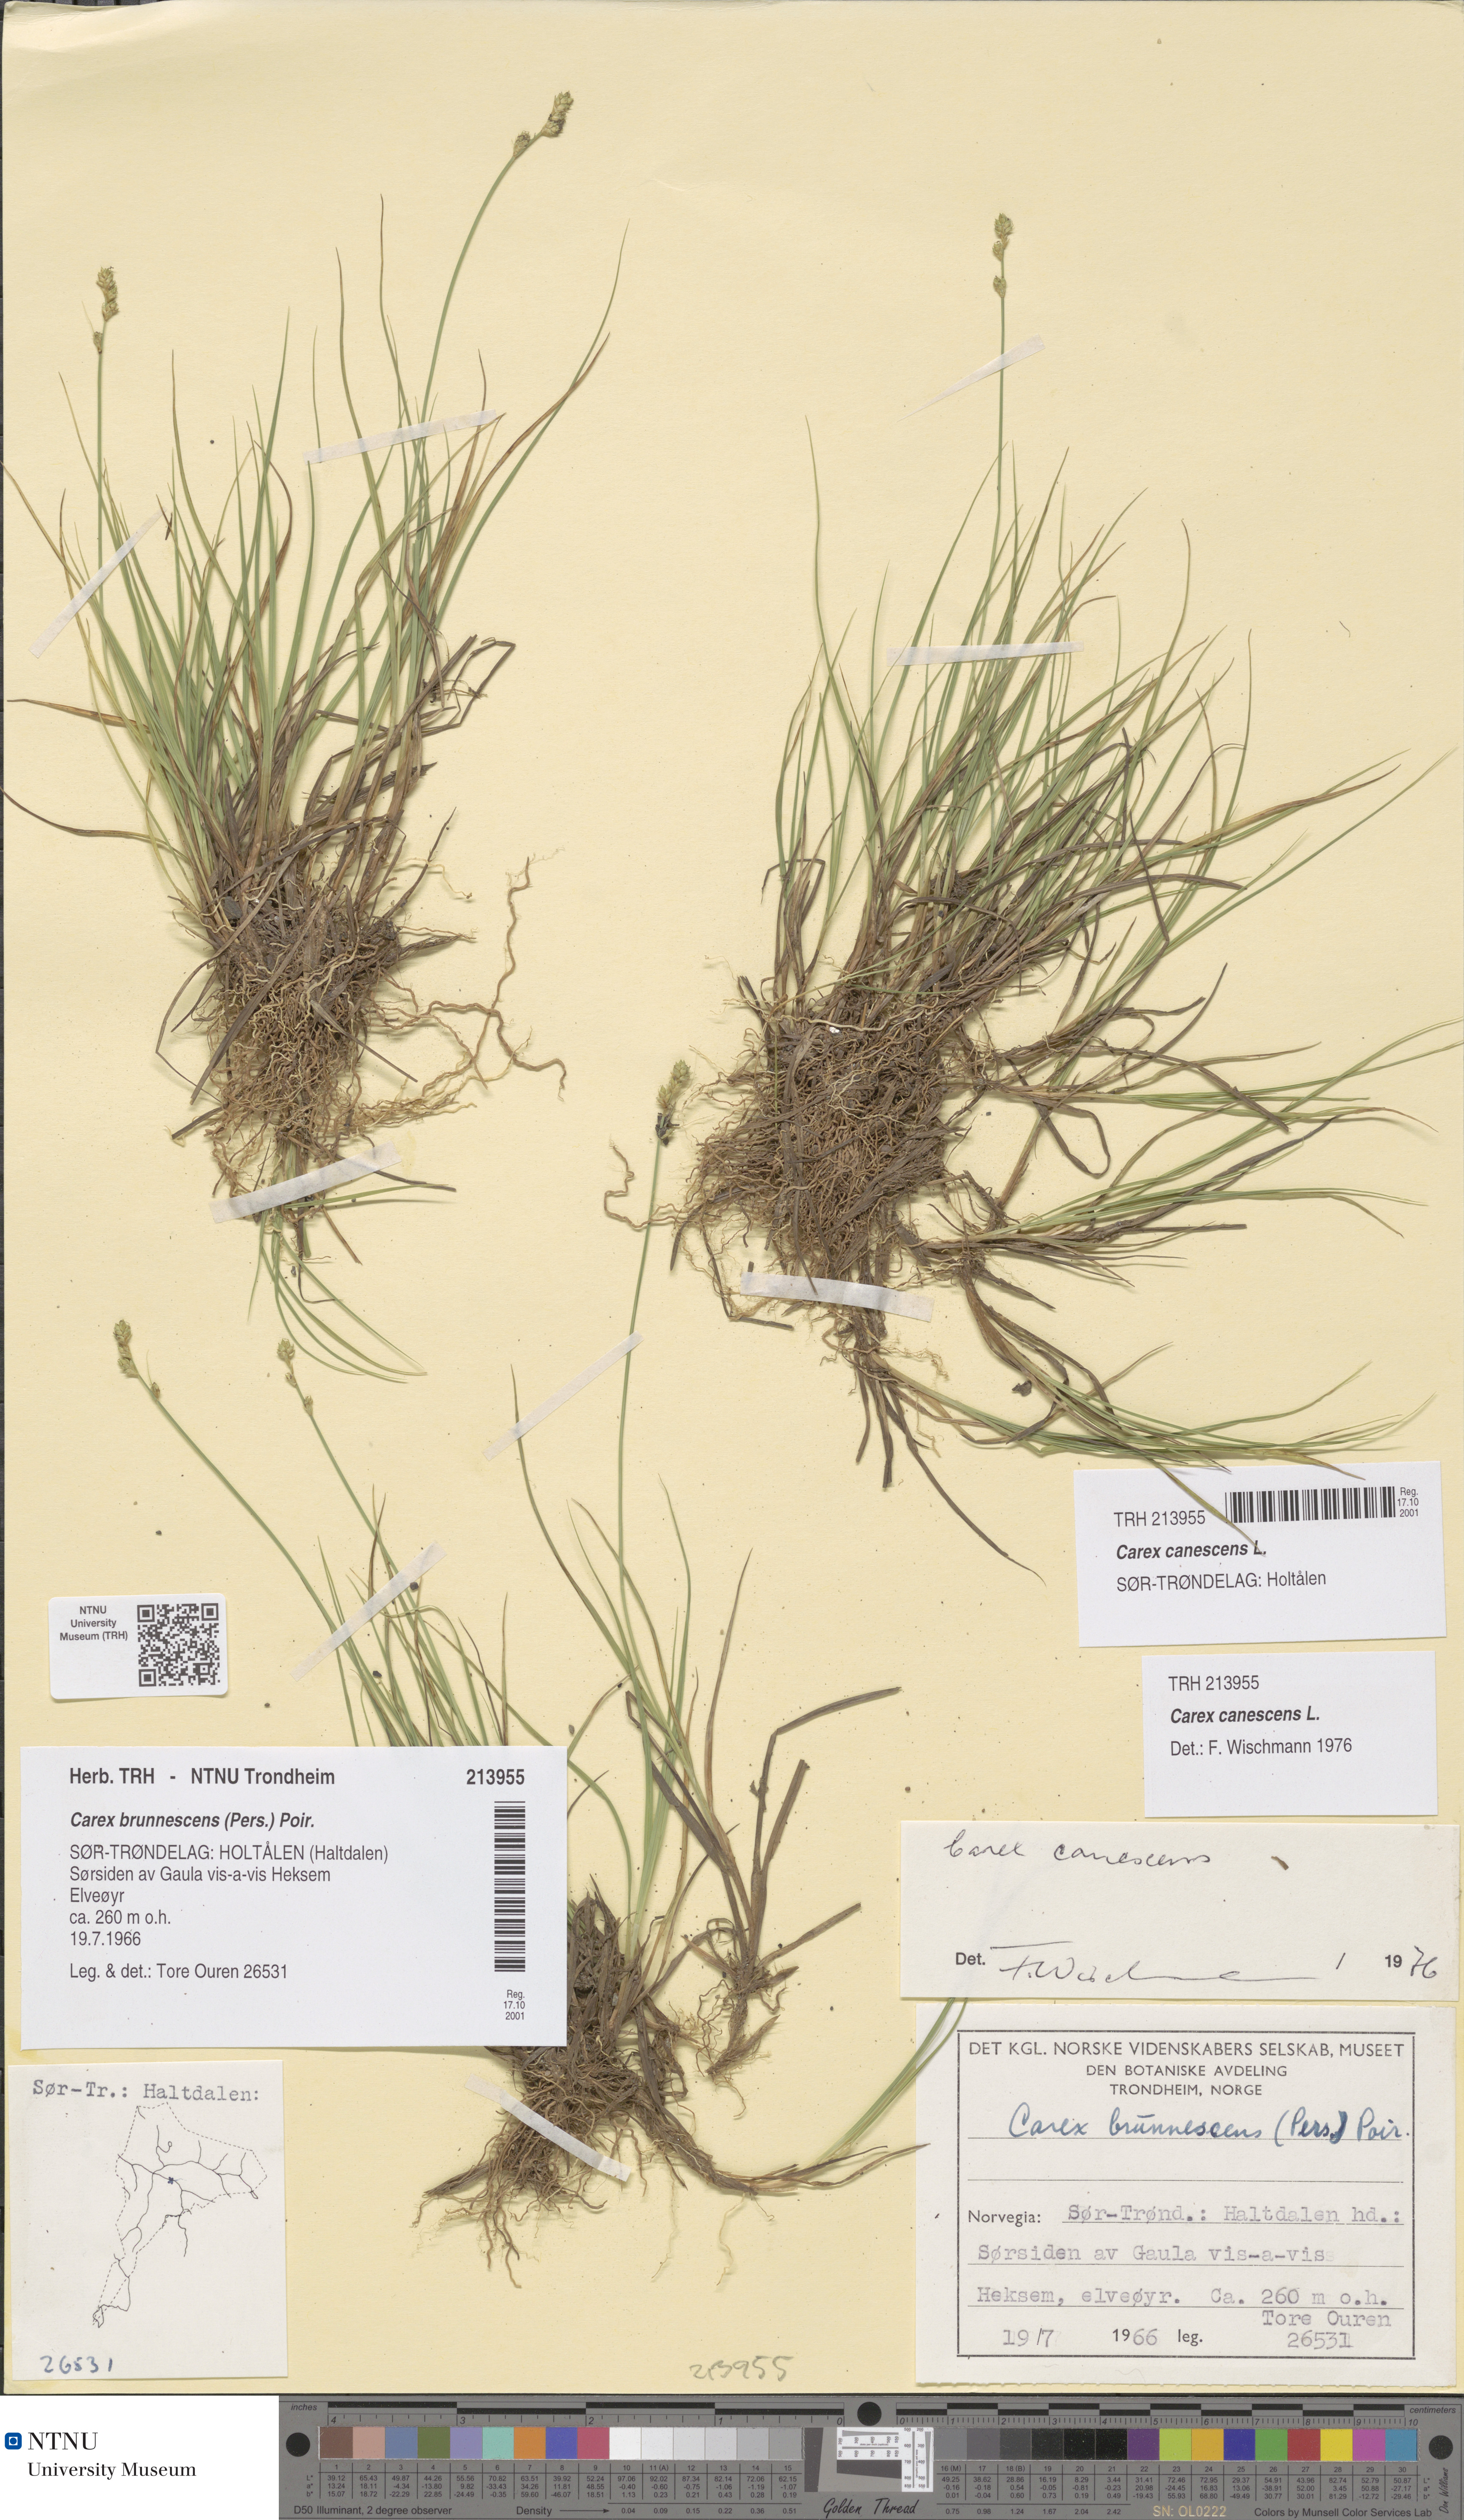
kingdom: Plantae
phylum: Tracheophyta
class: Liliopsida
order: Poales
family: Cyperaceae
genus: Carex
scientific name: Carex canescens
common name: White sedge
